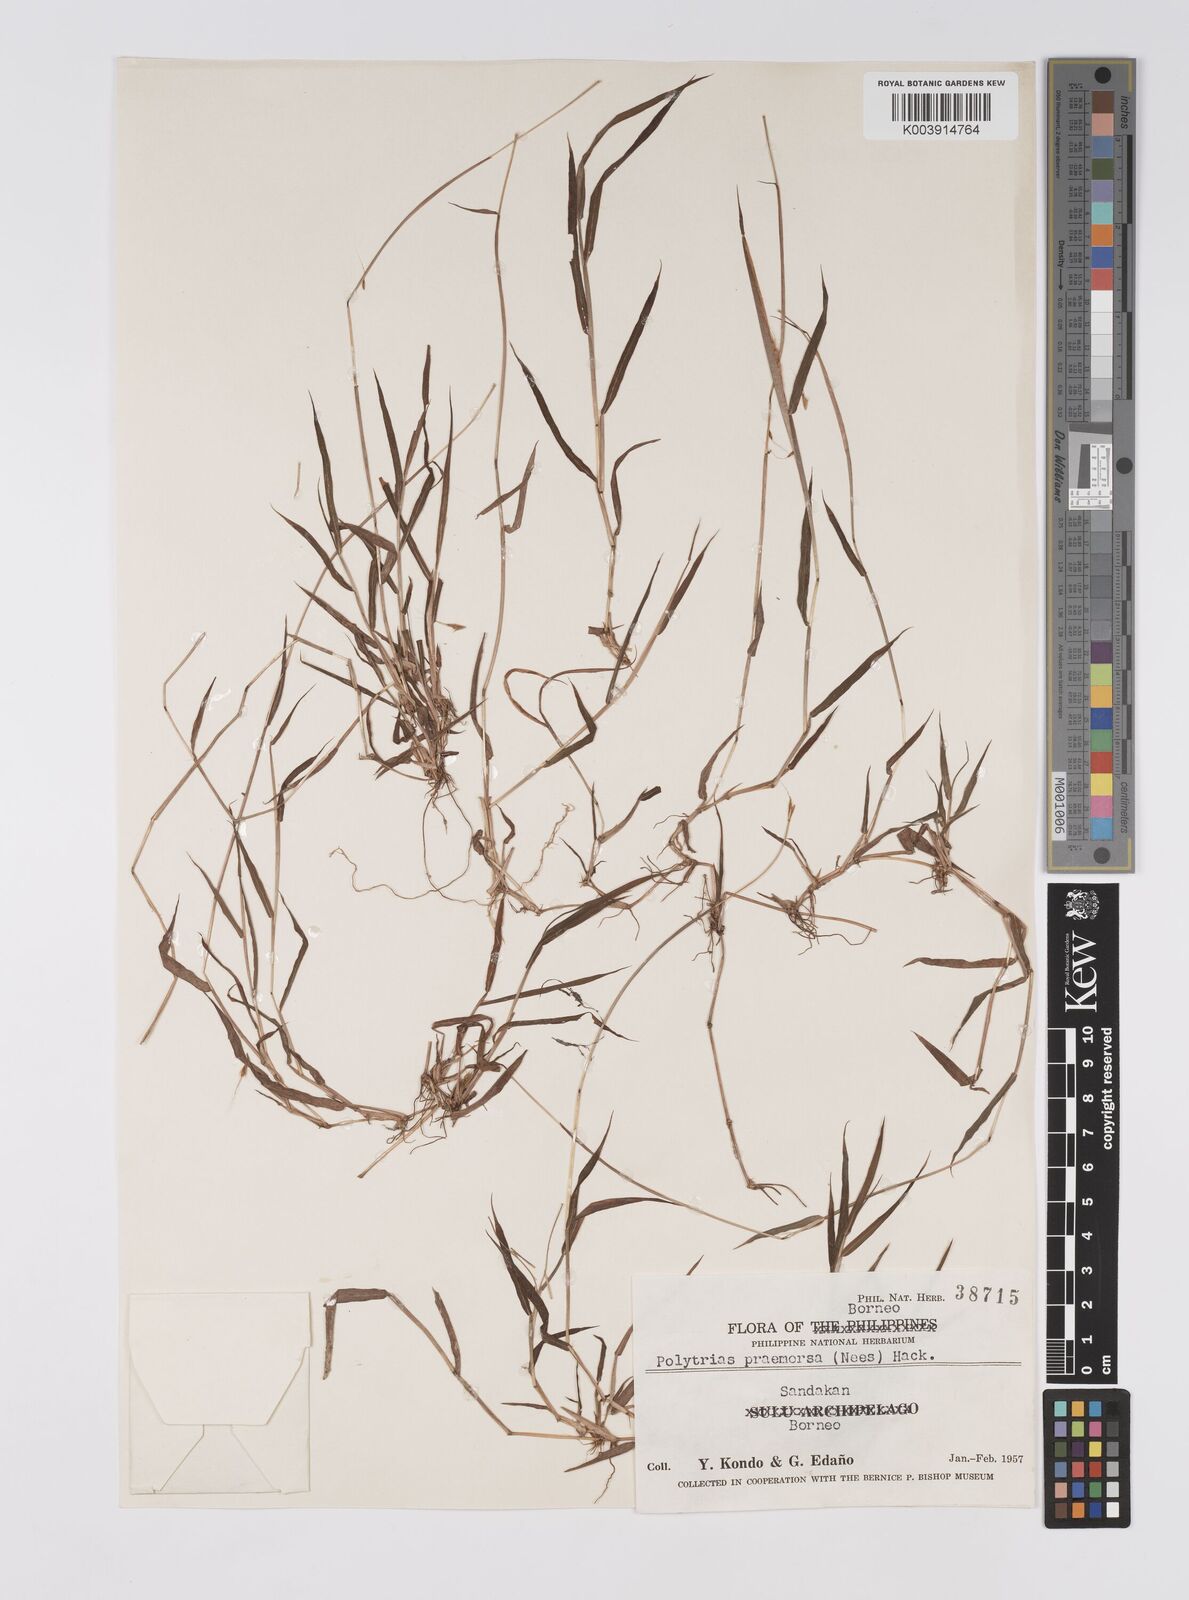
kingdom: Plantae
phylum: Tracheophyta
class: Liliopsida
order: Poales
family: Poaceae
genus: Polytrias
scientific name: Polytrias
